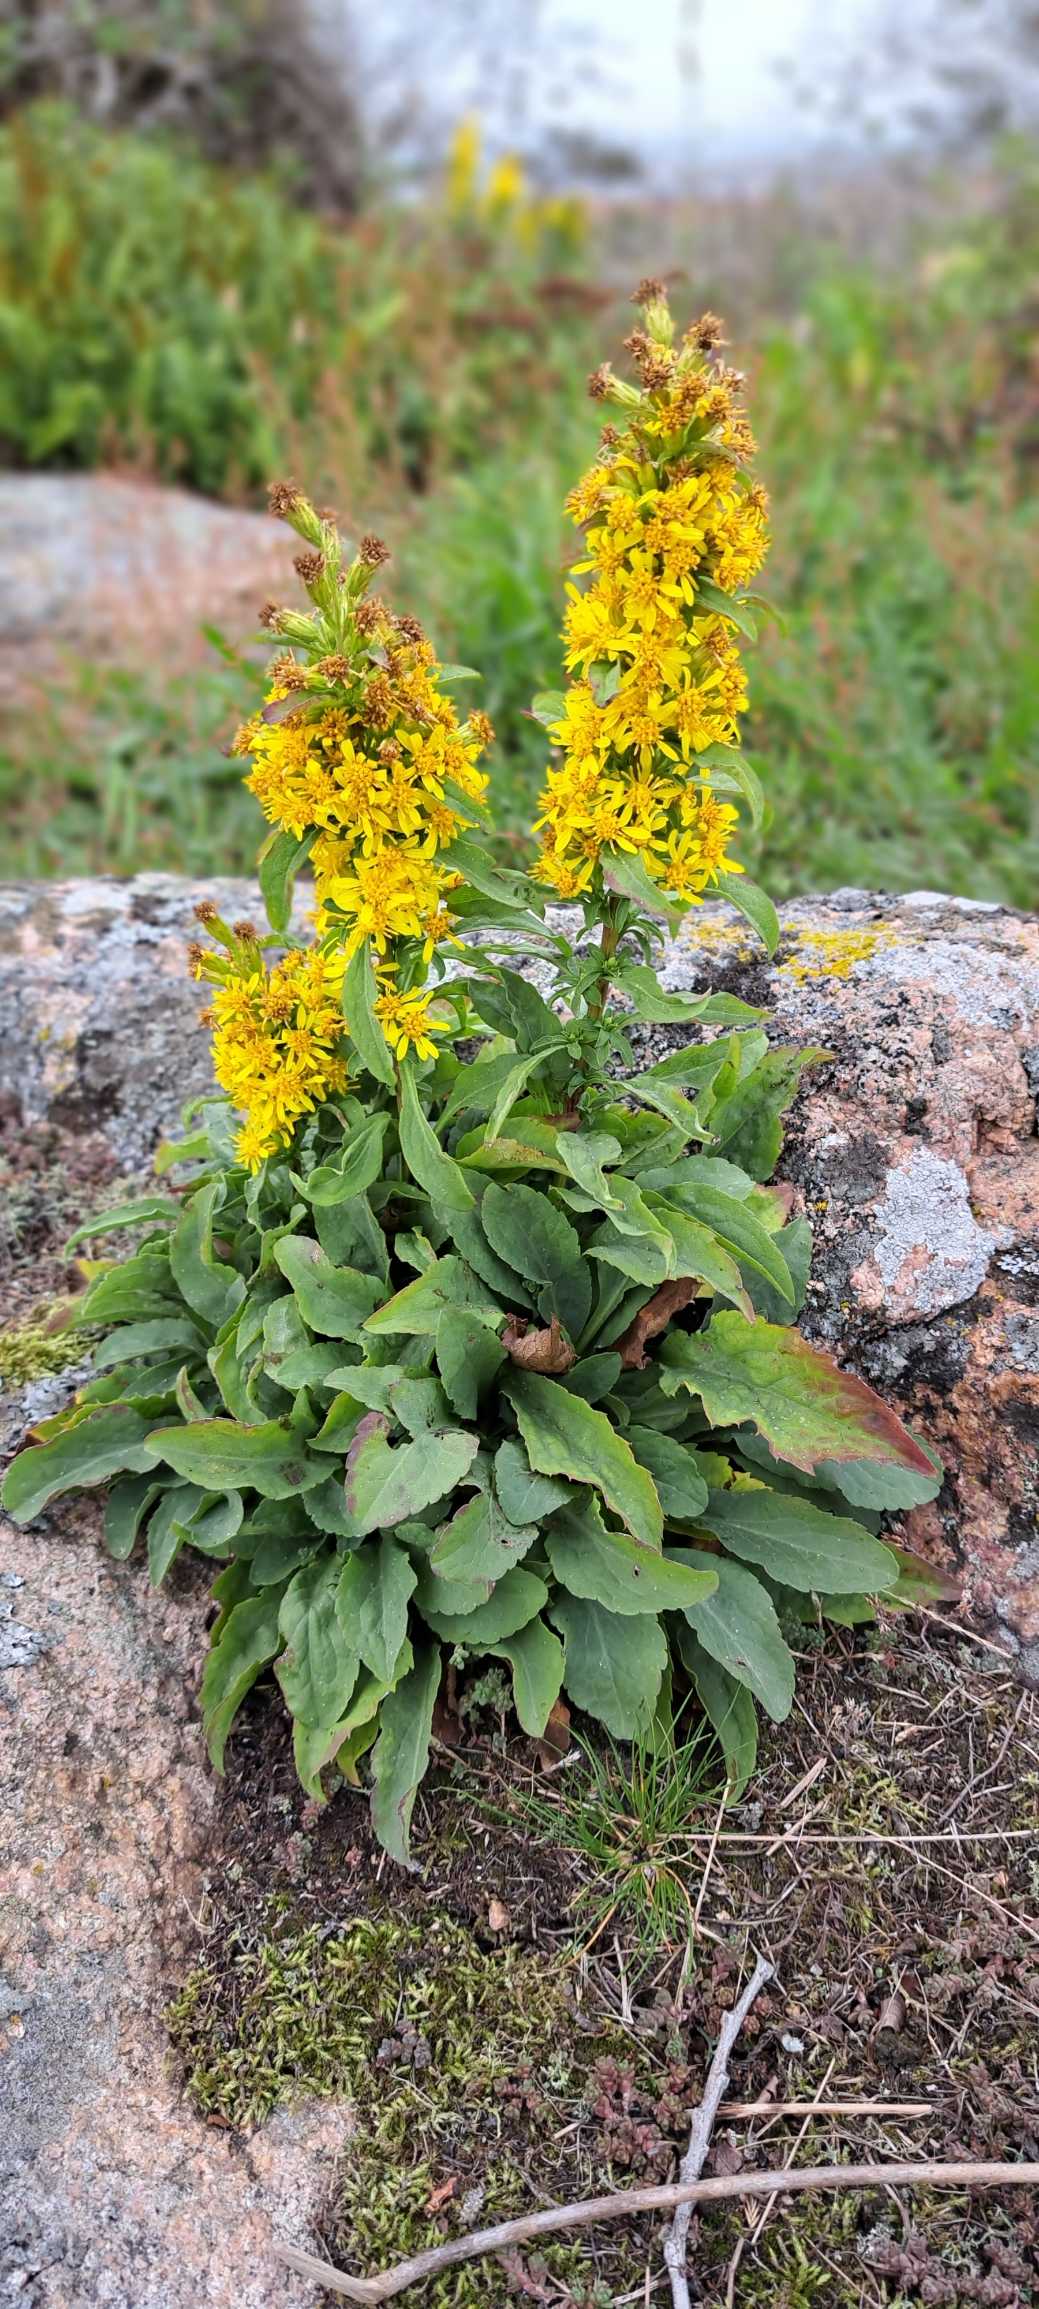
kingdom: Plantae
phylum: Tracheophyta
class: Magnoliopsida
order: Asterales
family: Asteraceae
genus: Solidago
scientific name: Solidago virgaurea
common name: Almindelig gyldenris
